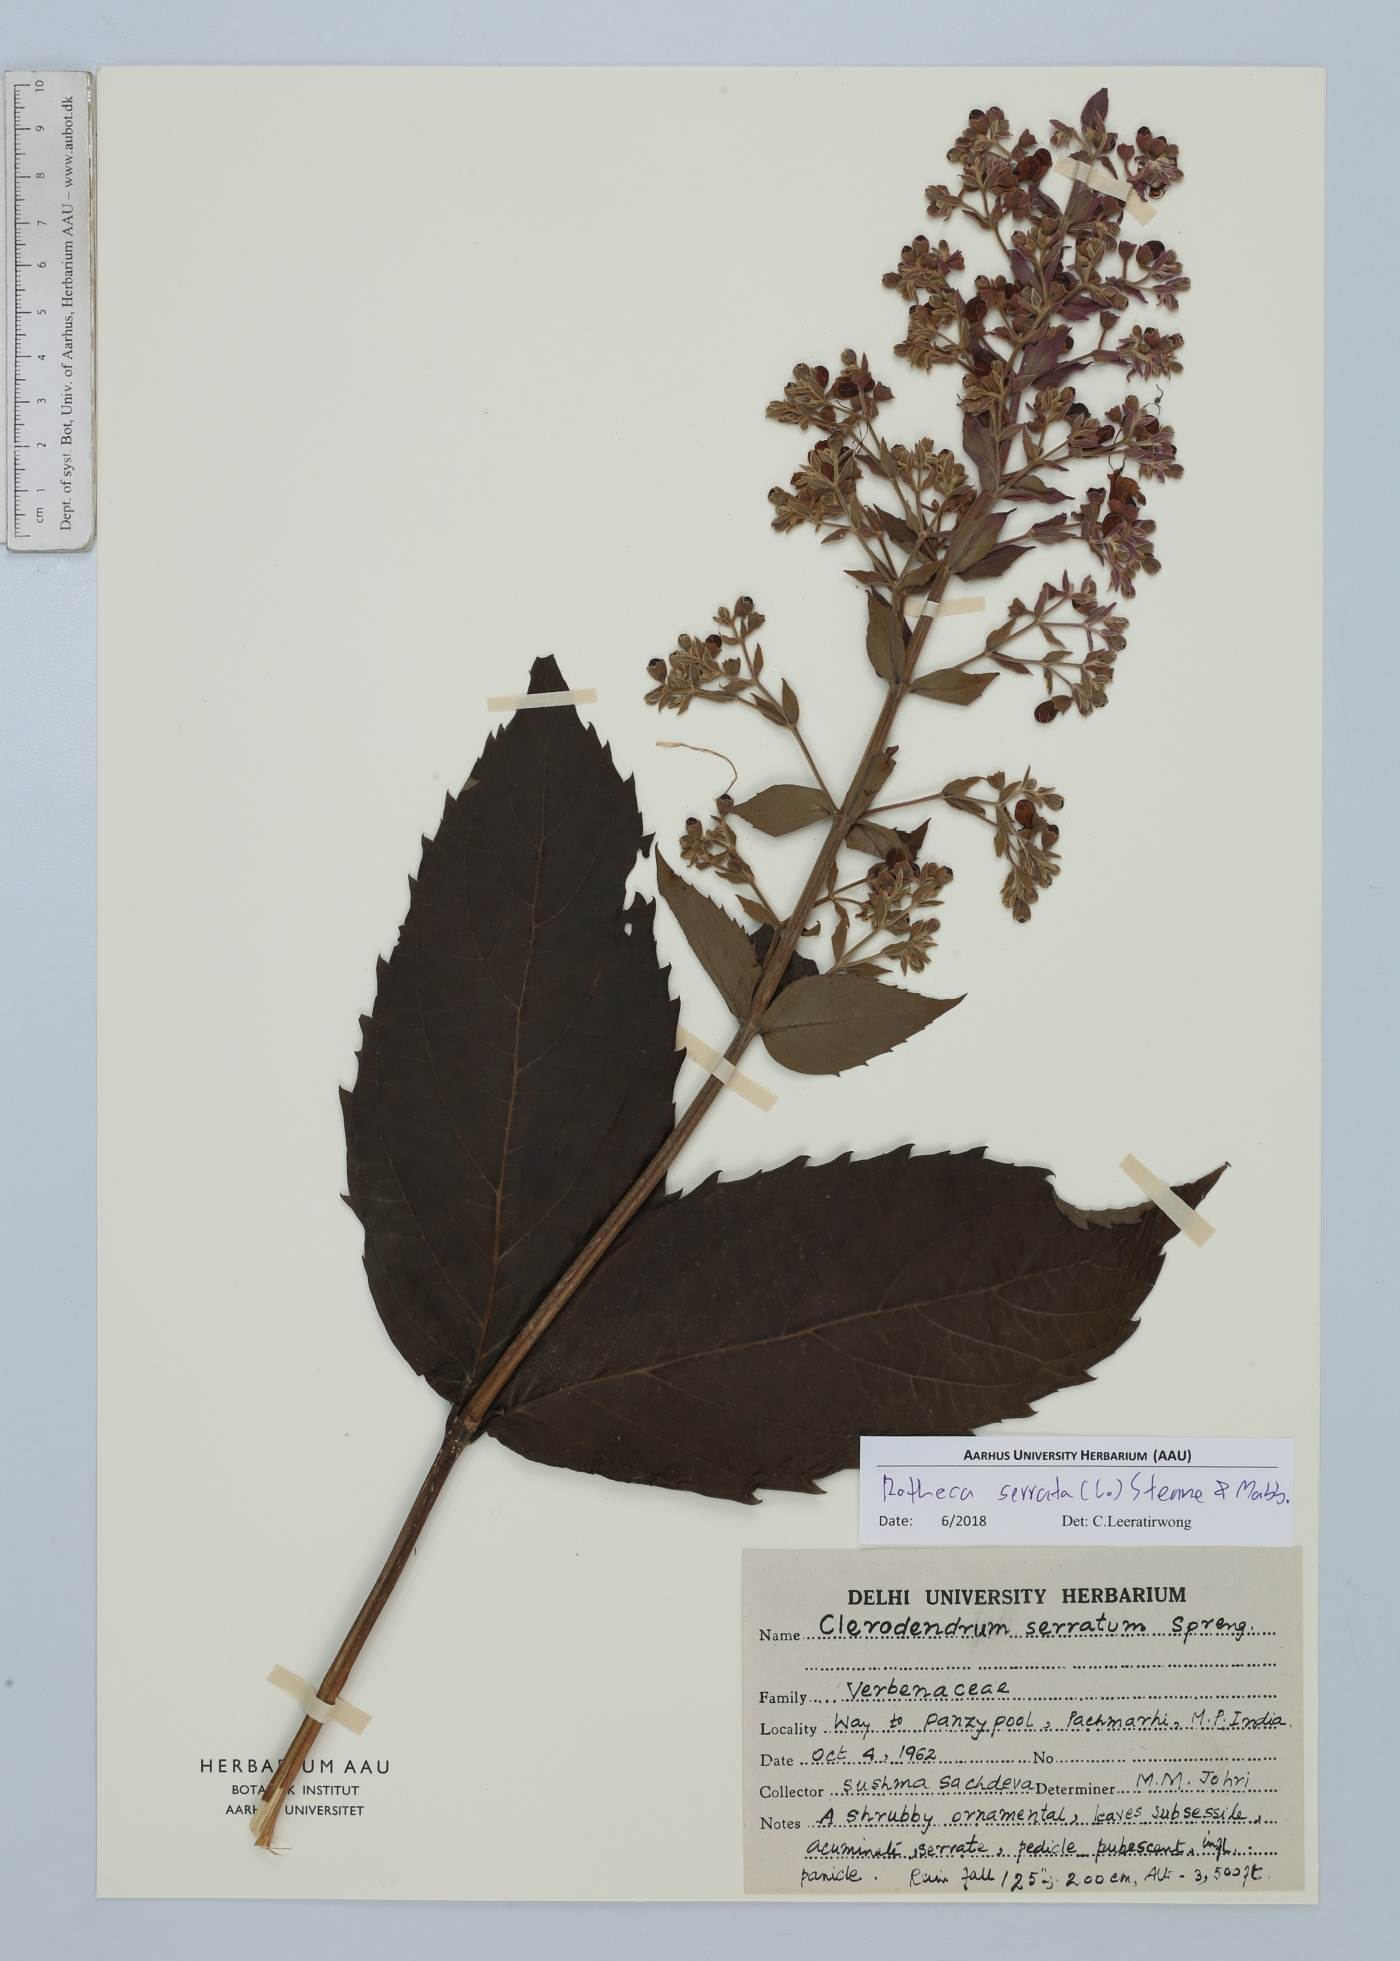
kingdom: Plantae
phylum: Tracheophyta
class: Magnoliopsida
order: Lamiales
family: Lamiaceae
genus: Rotheca
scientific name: Rotheca serrata
